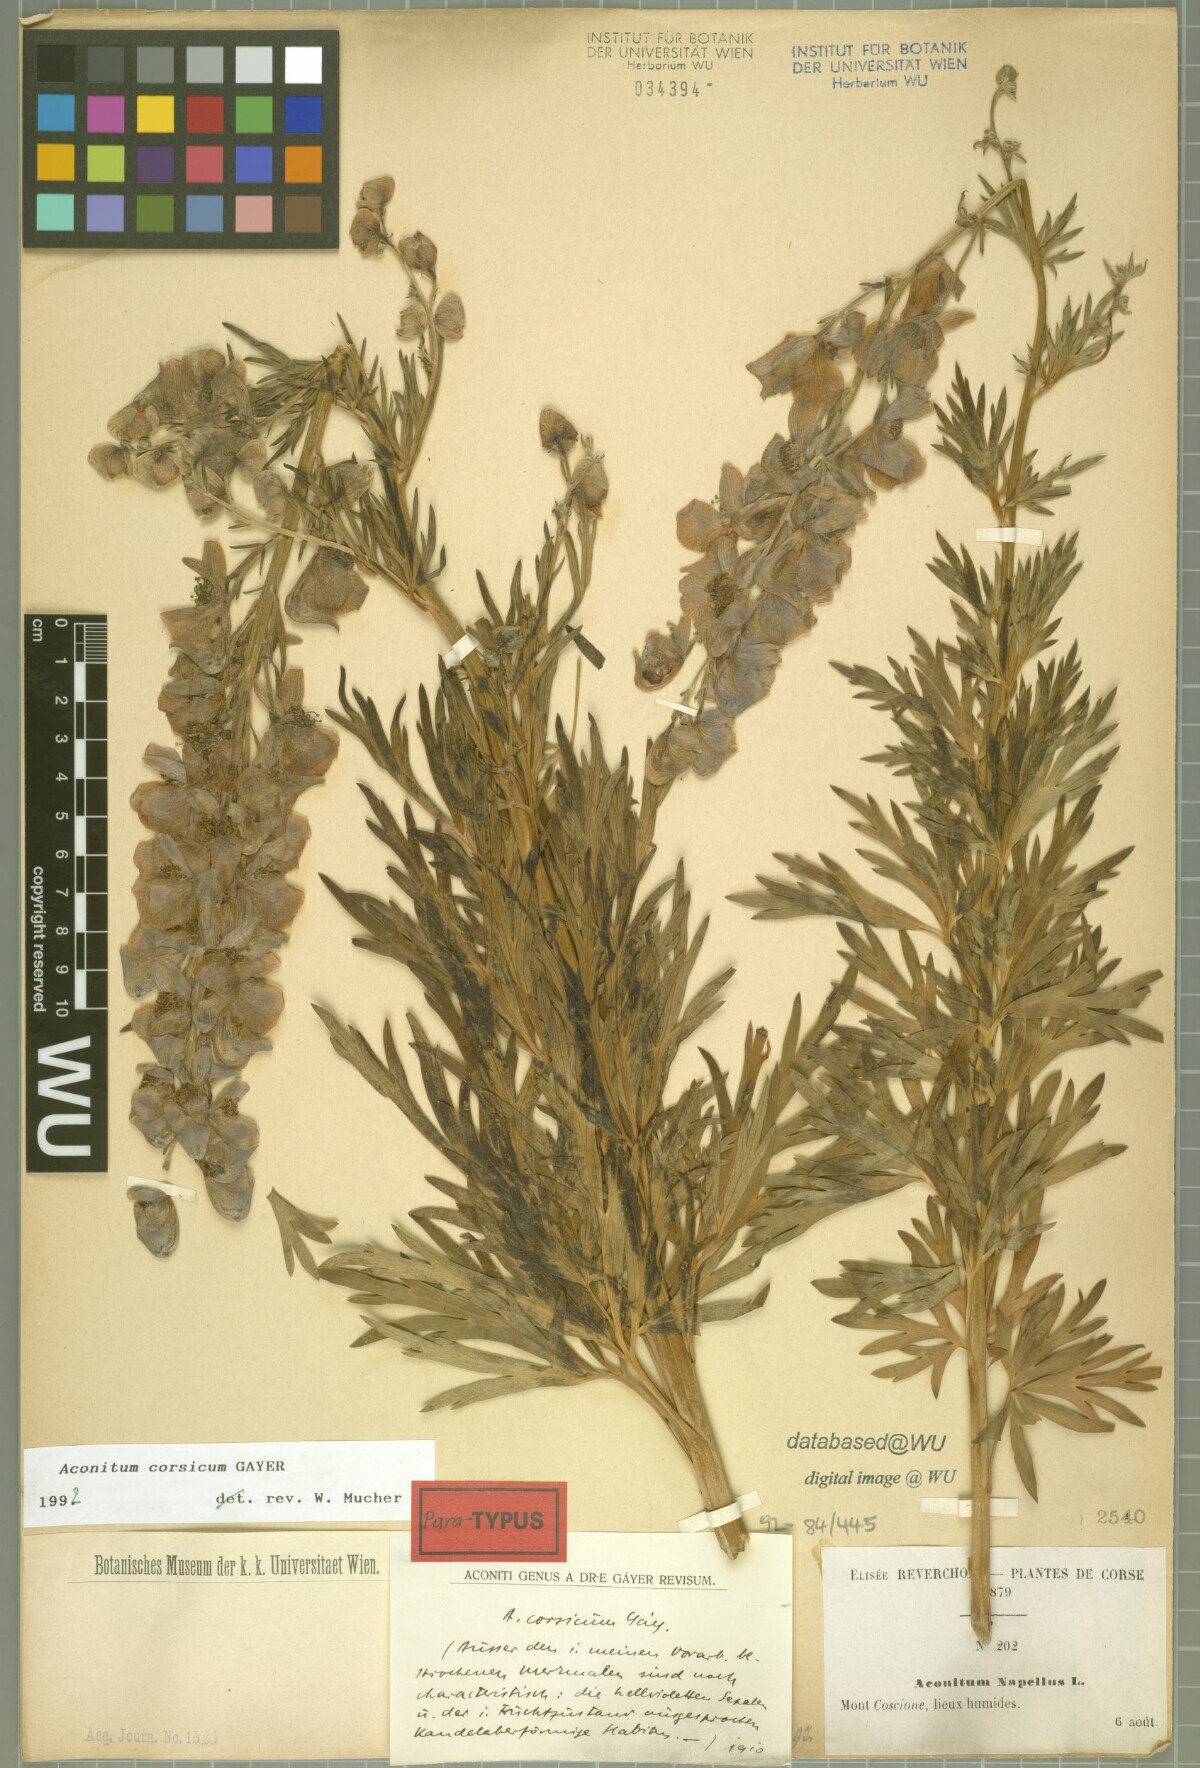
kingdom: Plantae
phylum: Tracheophyta
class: Magnoliopsida
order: Ranunculales
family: Ranunculaceae
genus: Aconitum
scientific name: Aconitum corsicum
